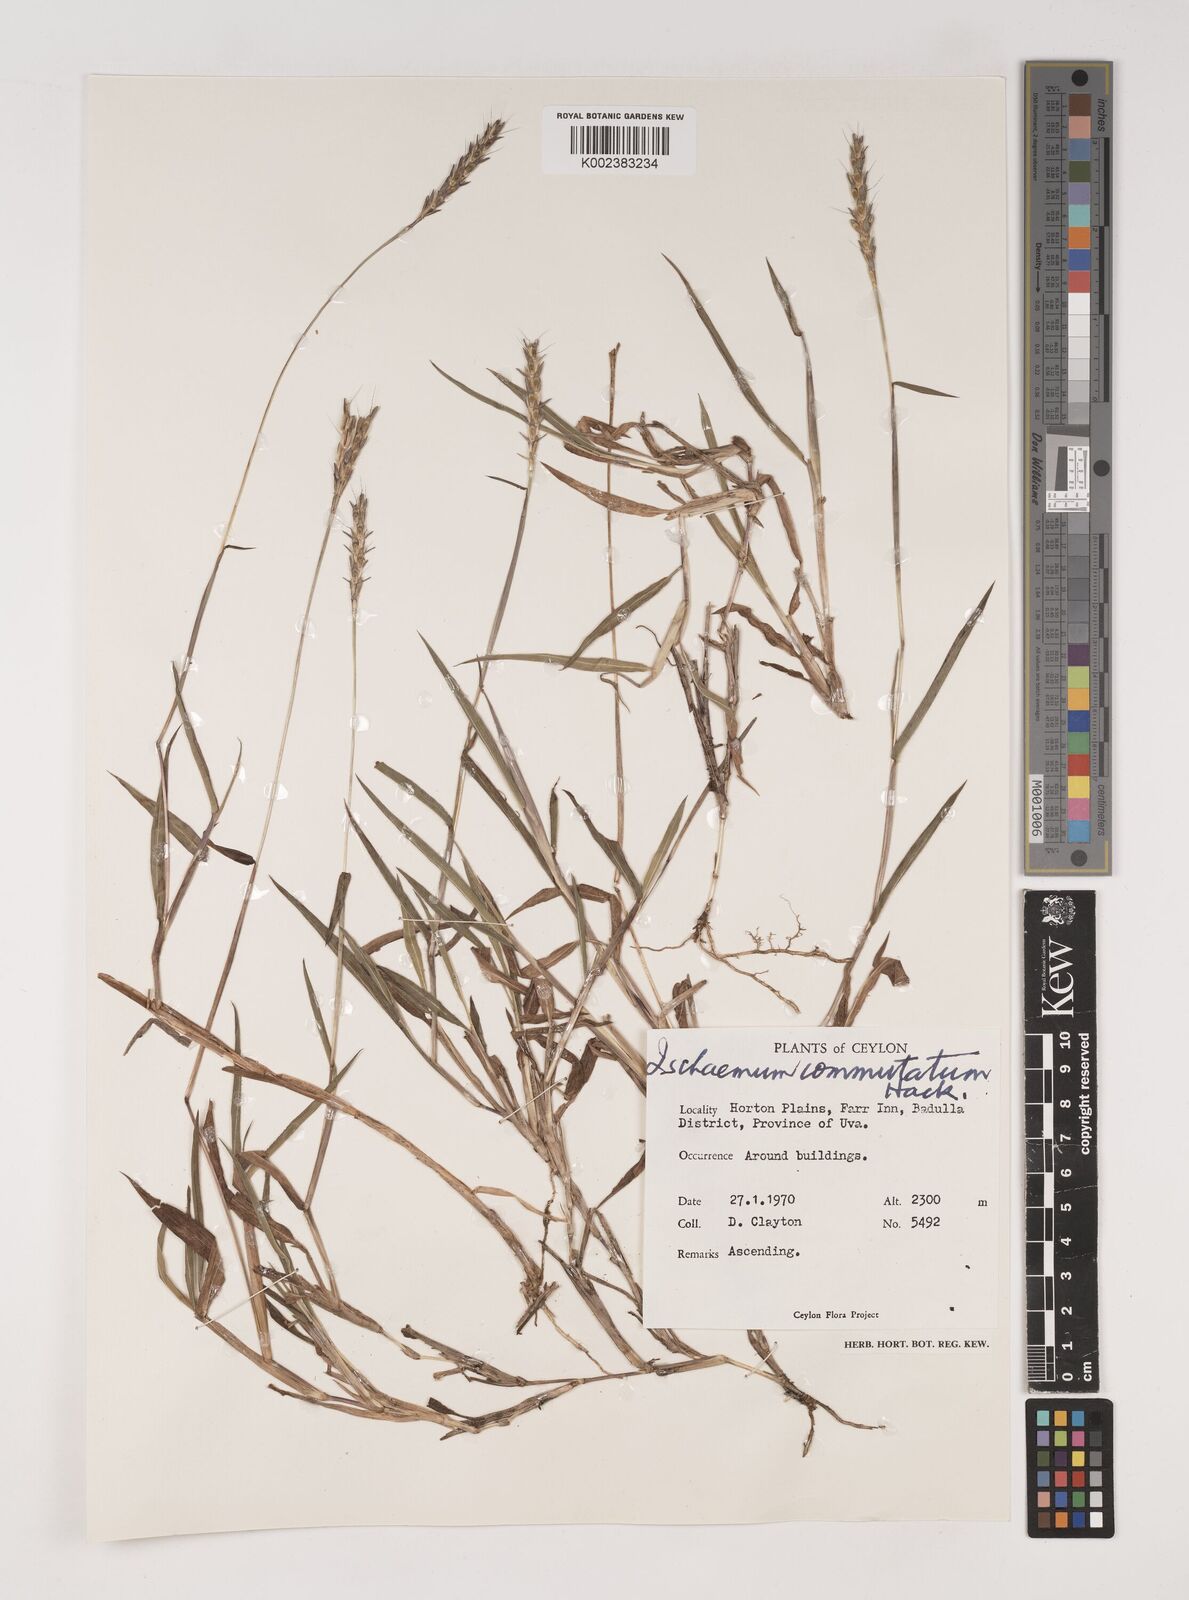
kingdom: Plantae
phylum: Tracheophyta
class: Liliopsida
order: Poales
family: Poaceae
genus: Ischaemum
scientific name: Ischaemum commutatum
